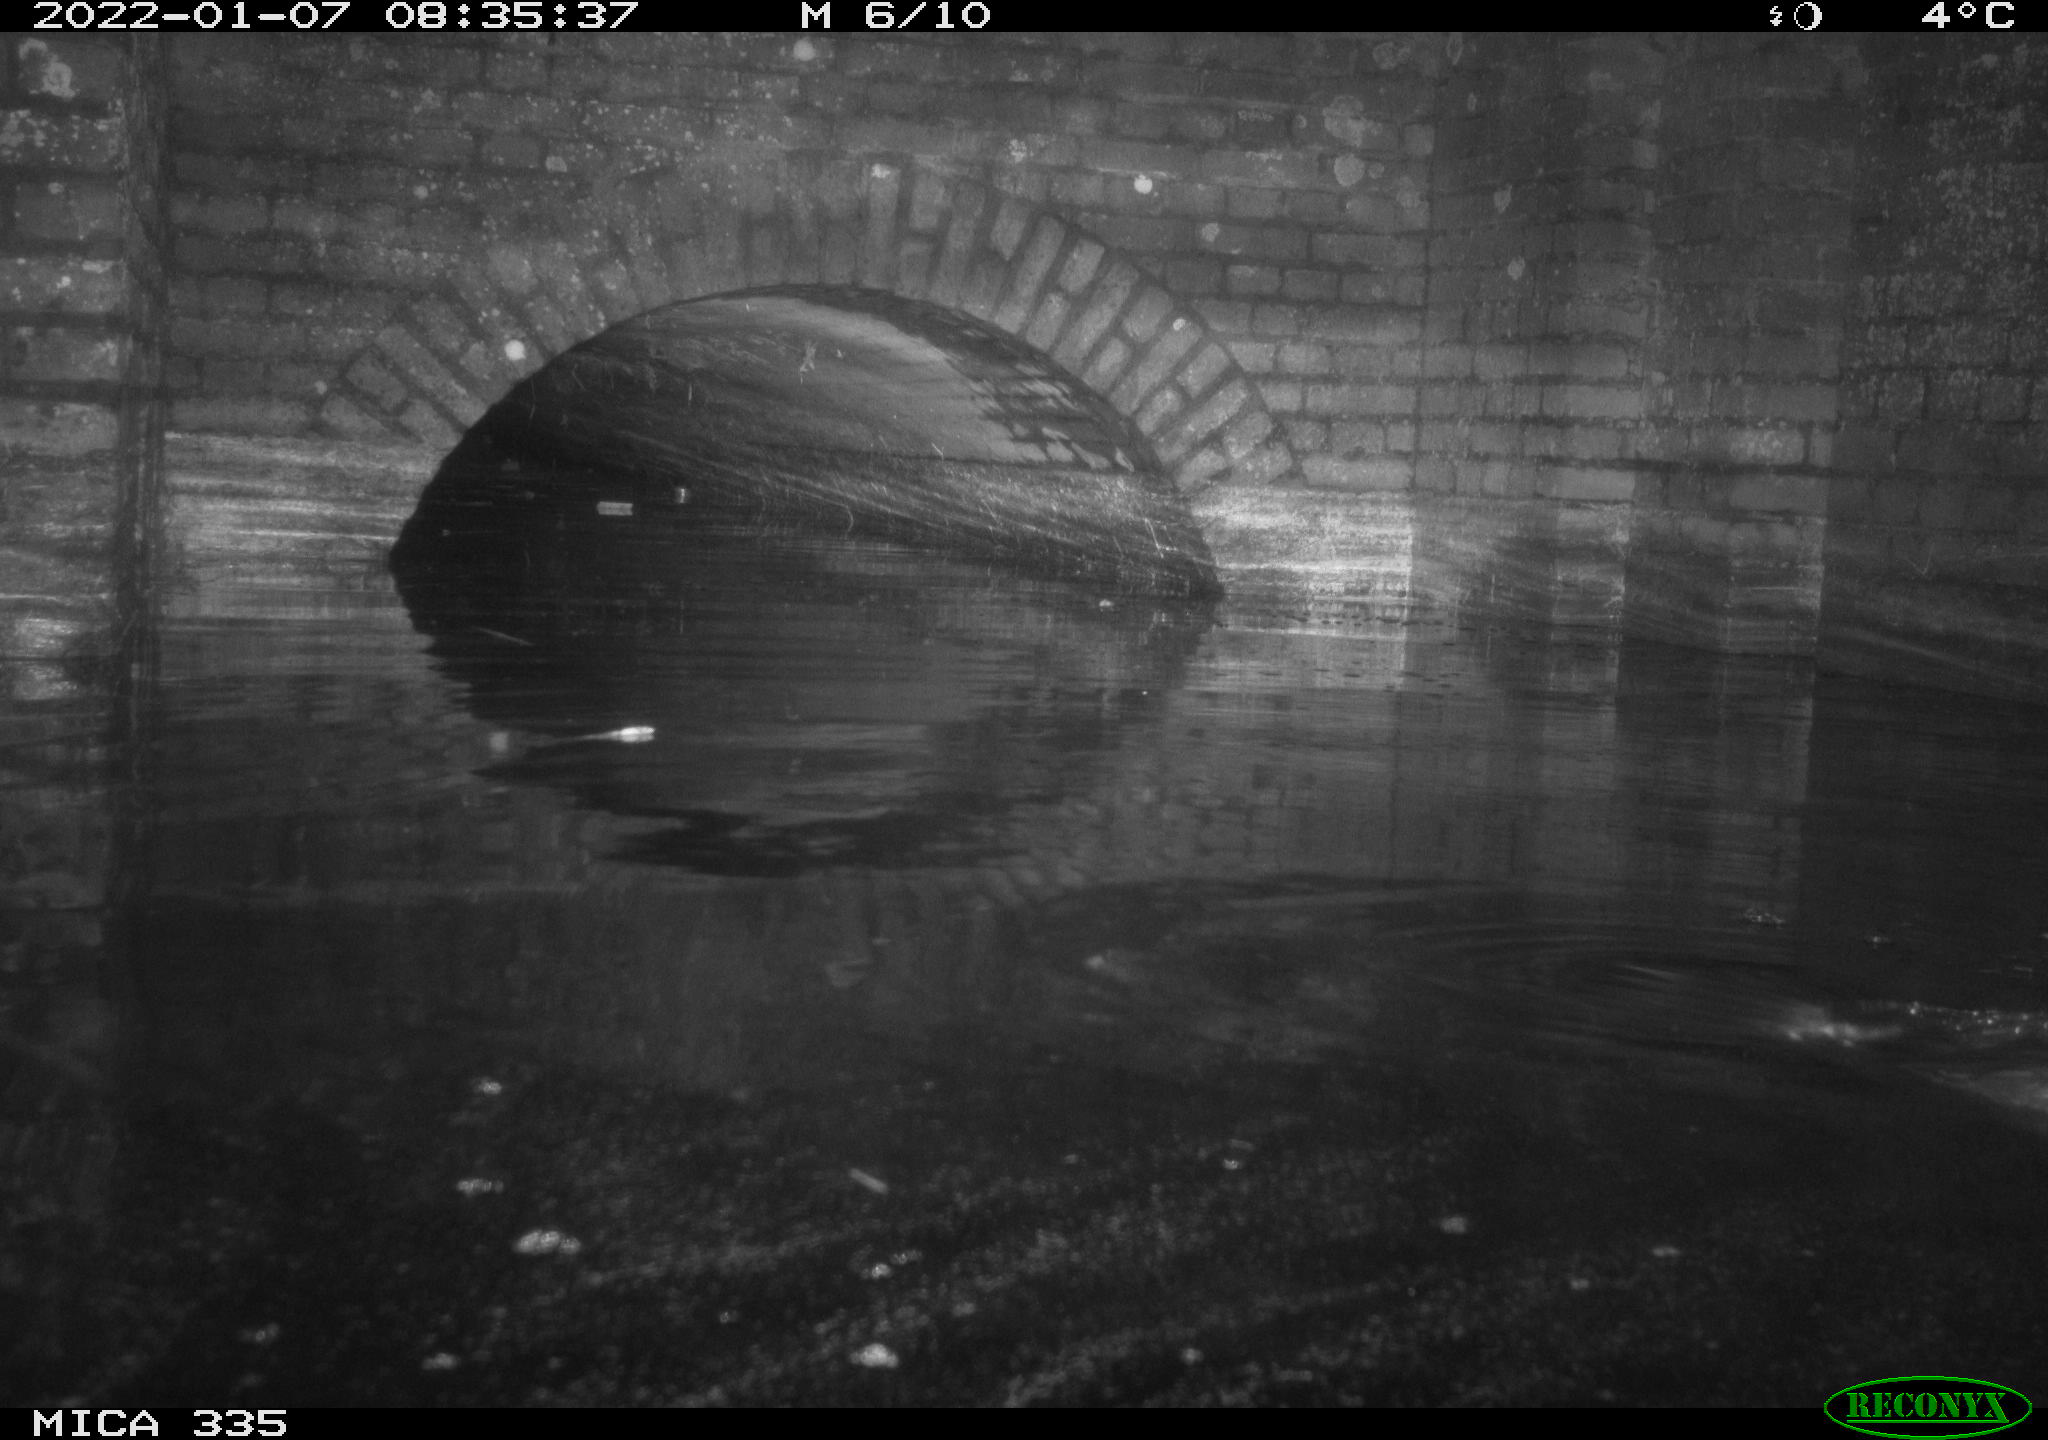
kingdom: Animalia
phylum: Chordata
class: Aves
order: Suliformes
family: Phalacrocoracidae
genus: Phalacrocorax
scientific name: Phalacrocorax carbo
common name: Great cormorant
